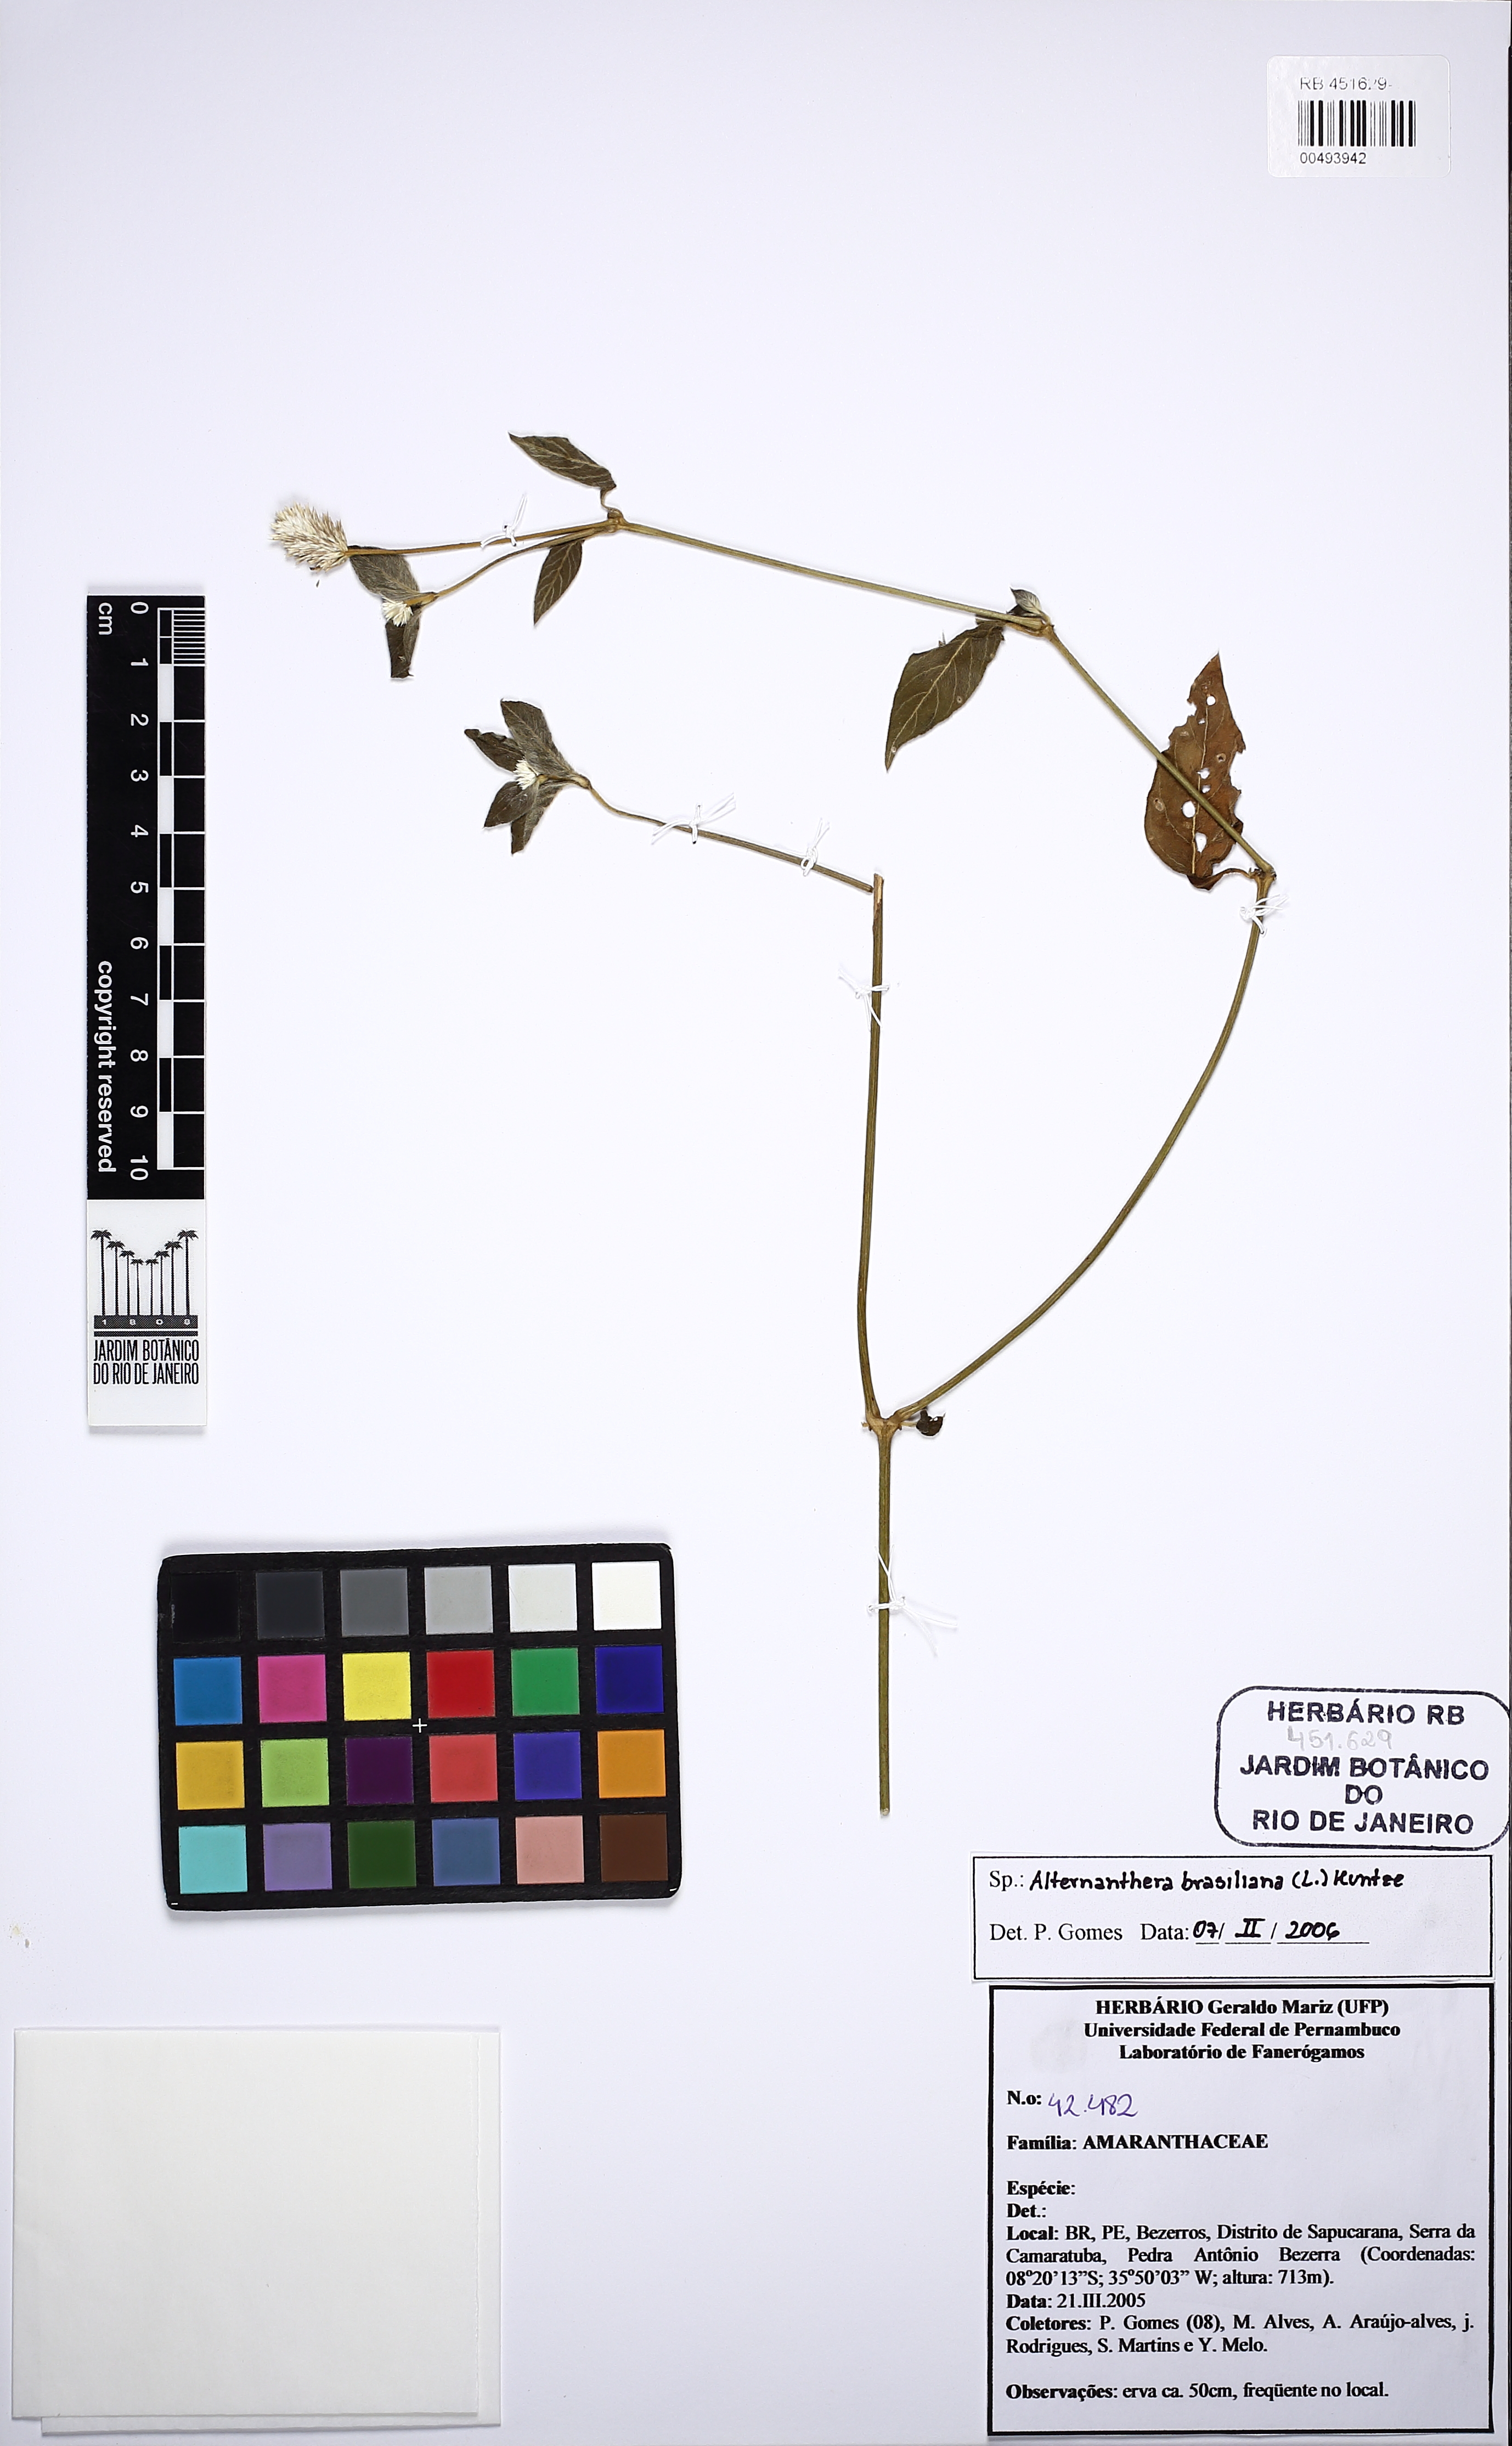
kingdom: Plantae
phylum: Tracheophyta
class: Magnoliopsida
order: Caryophyllales
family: Amaranthaceae
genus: Alternanthera
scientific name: Alternanthera brasiliana
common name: Brazilian joyweed
